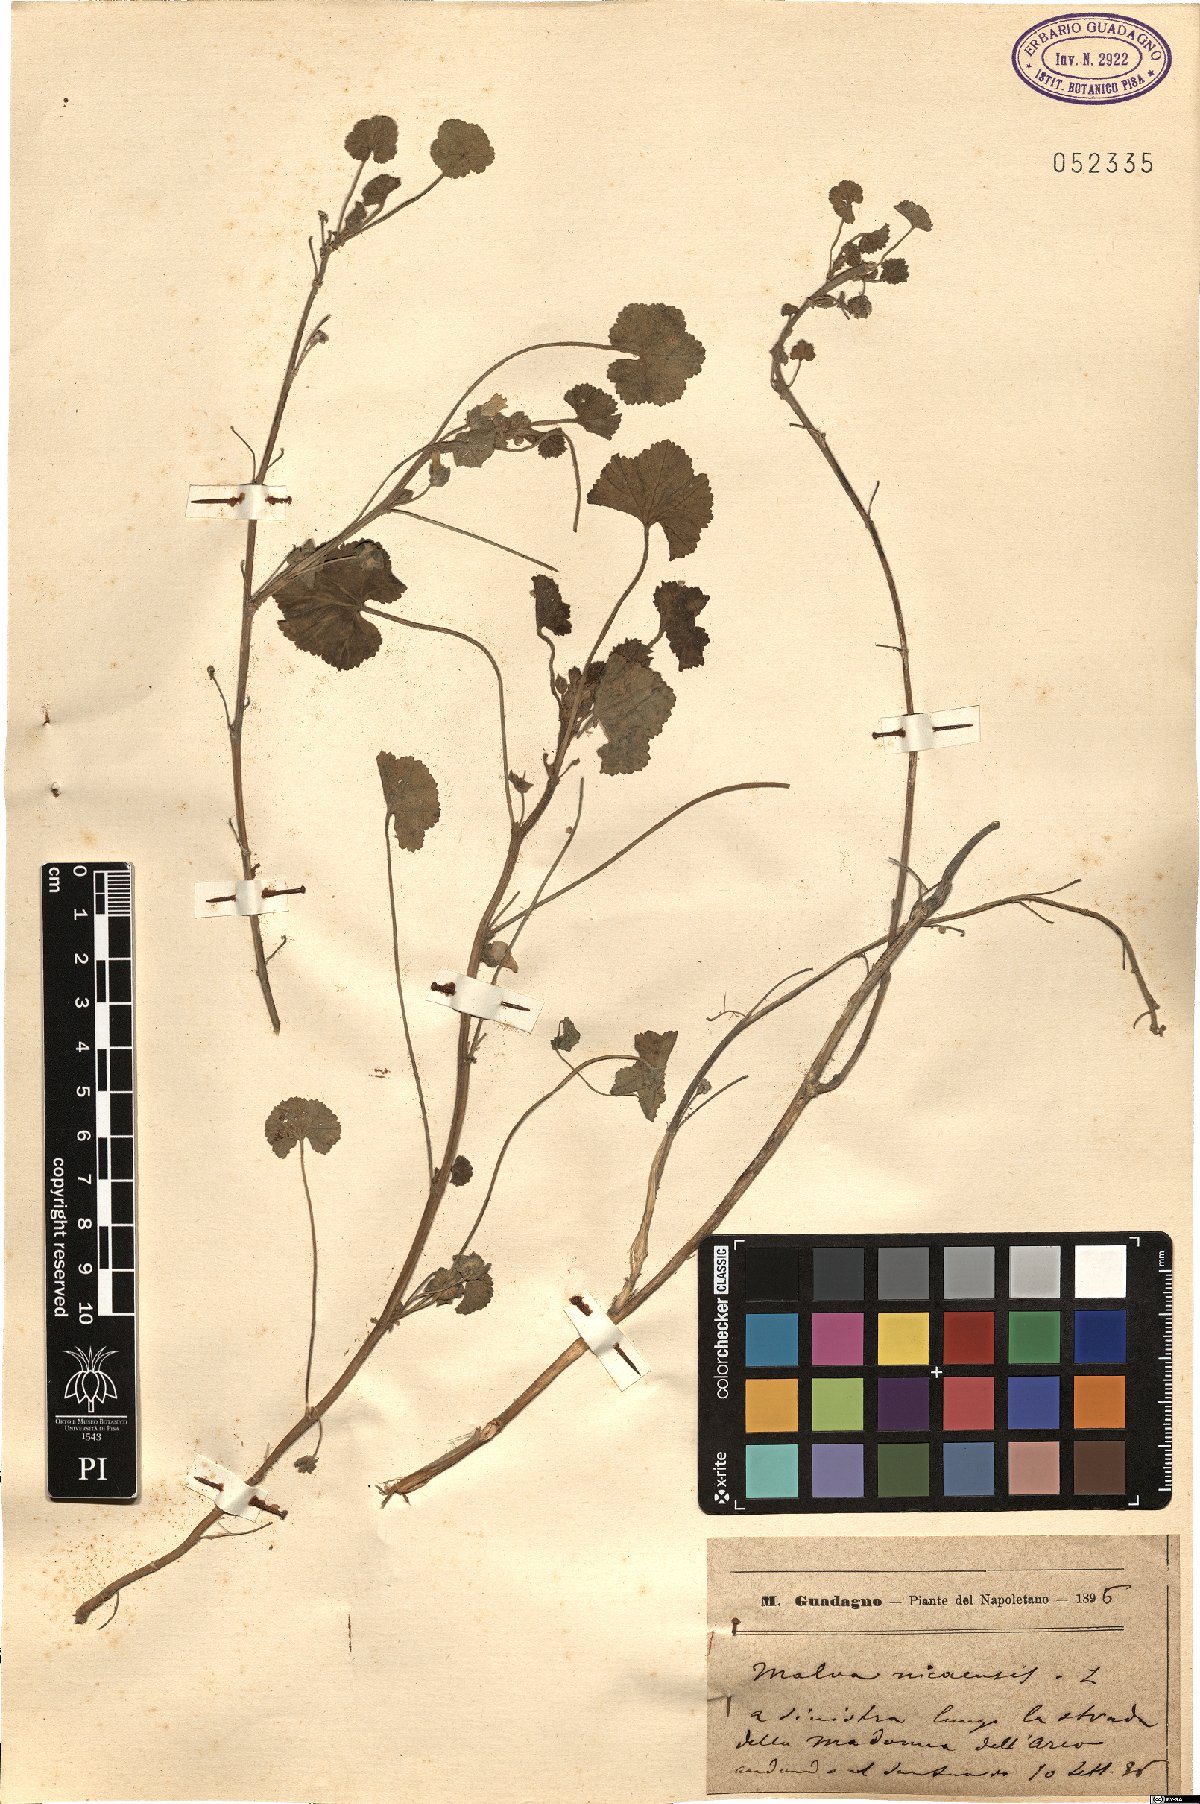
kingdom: Plantae
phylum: Tracheophyta
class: Magnoliopsida
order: Malvales
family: Malvaceae
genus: Malva
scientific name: Malva nicaeensis
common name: French mallow
